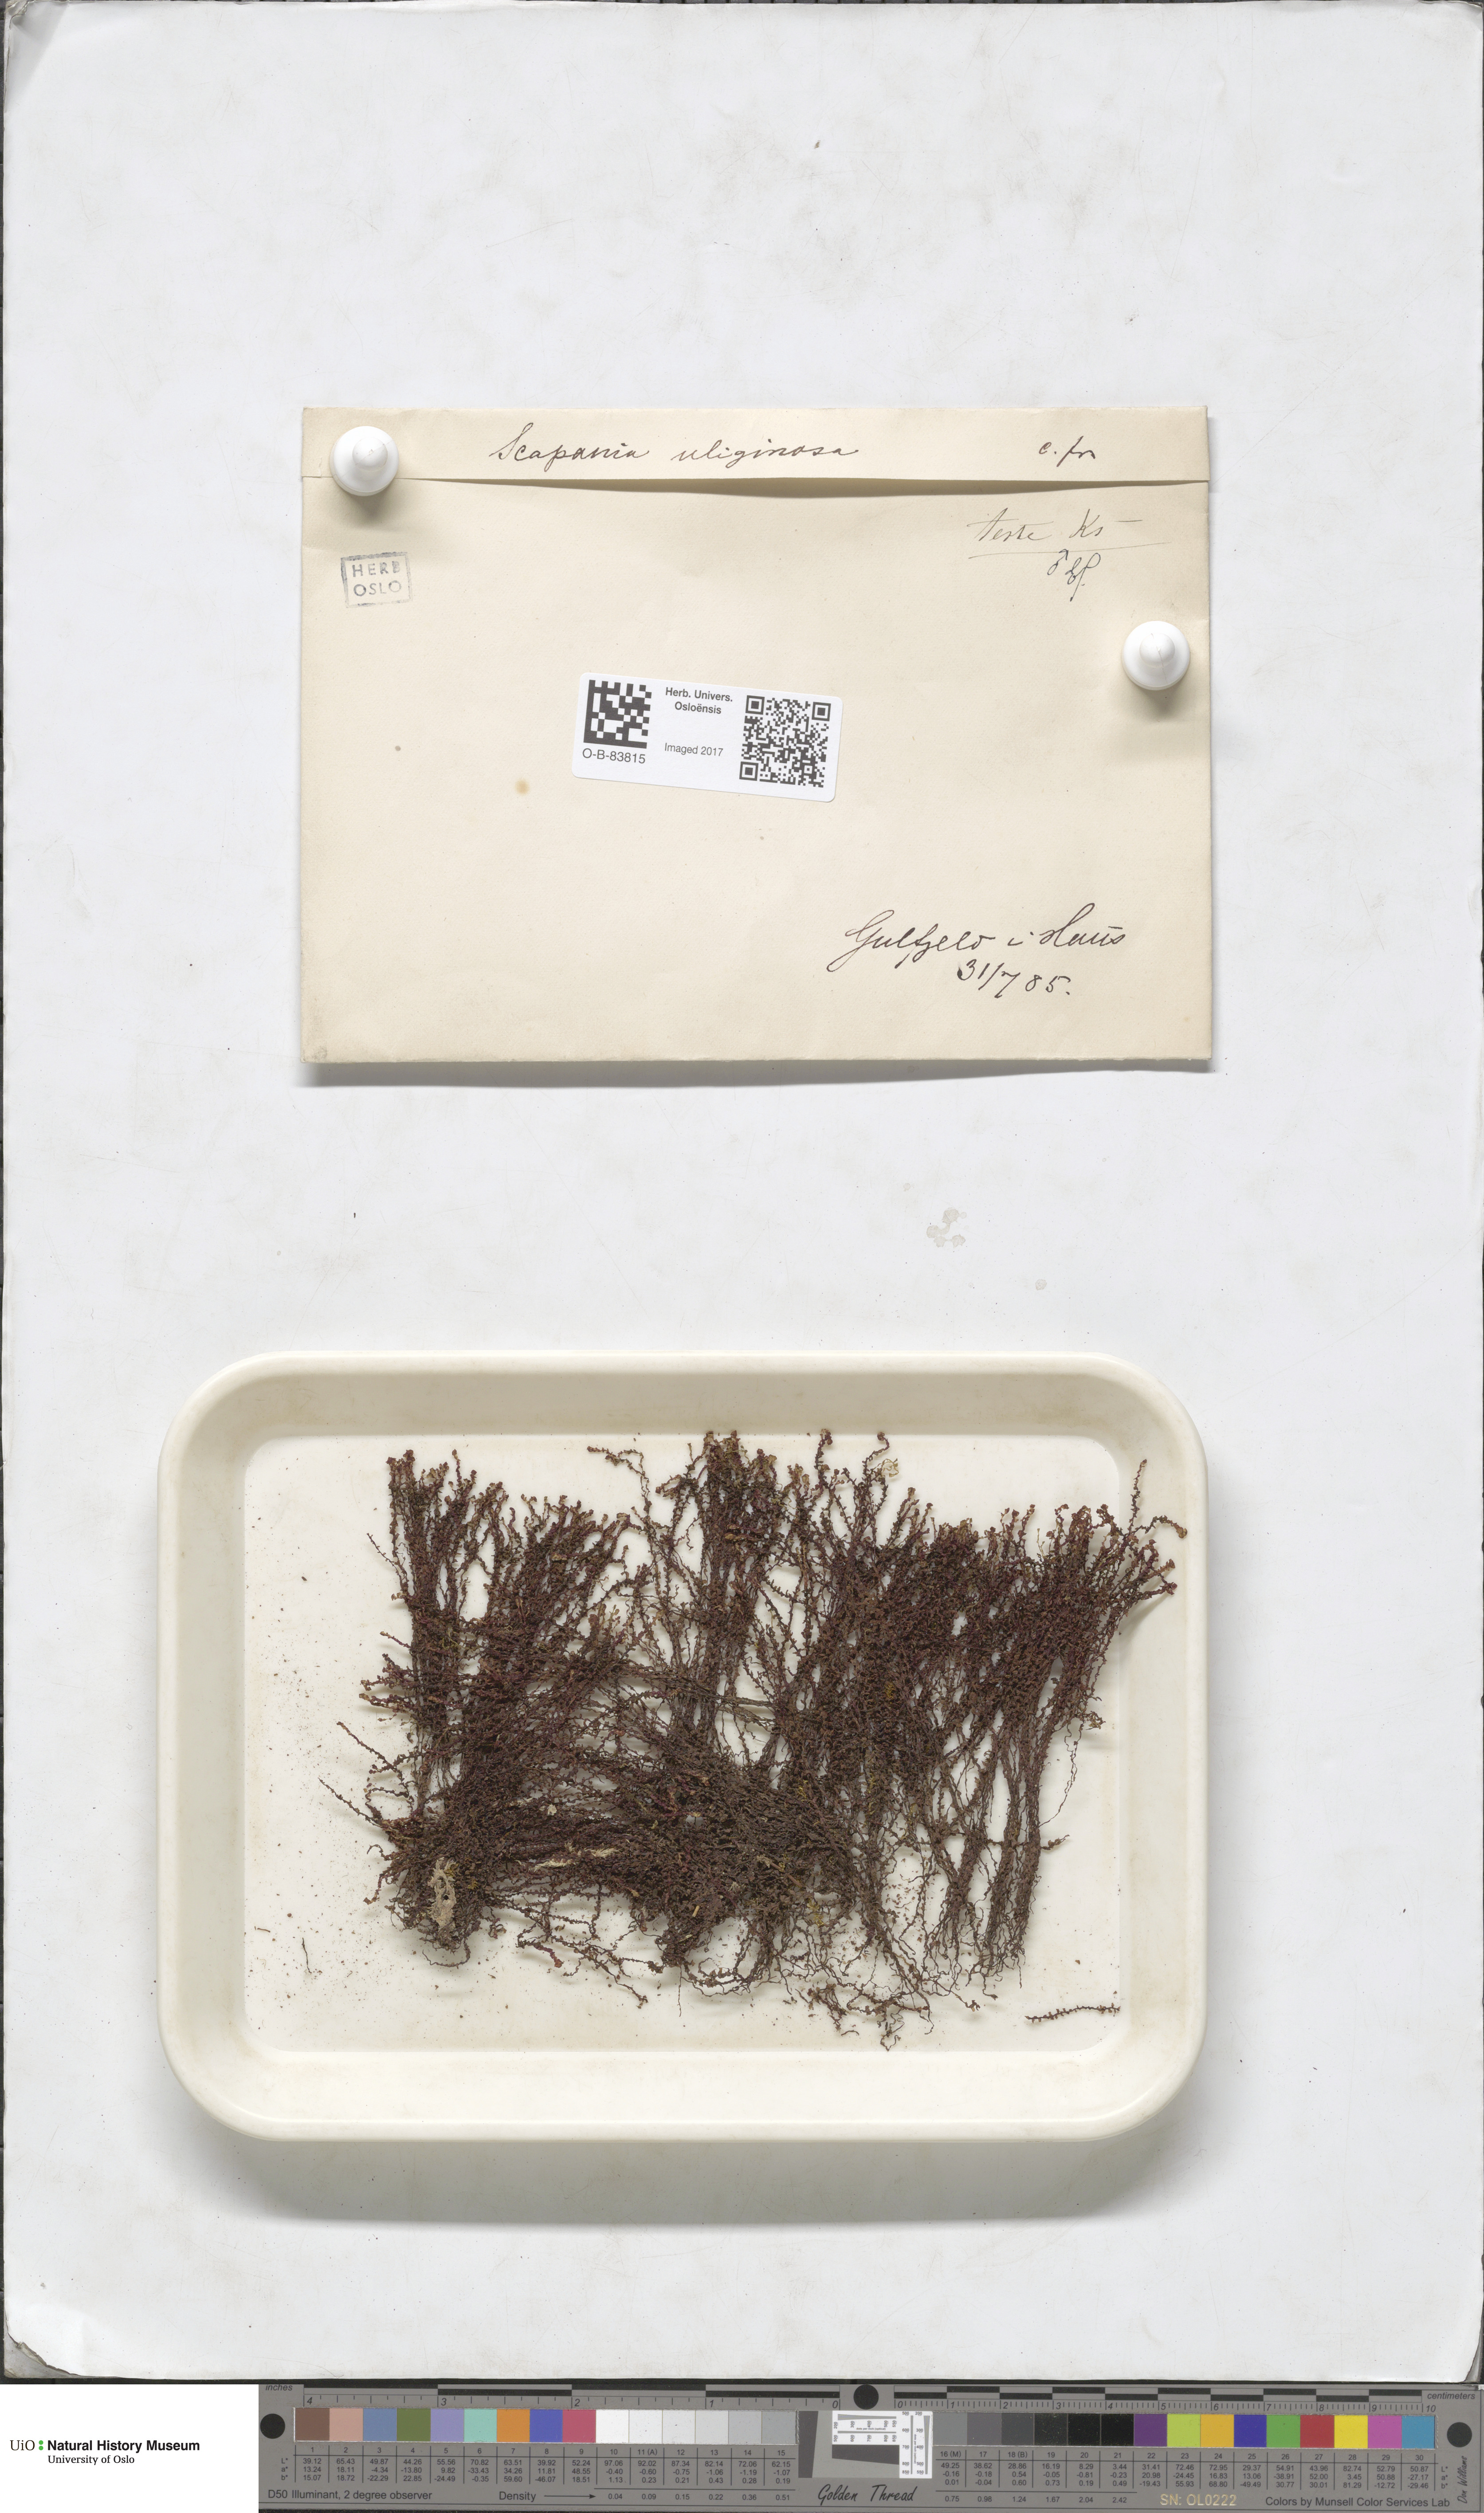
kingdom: Plantae
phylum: Marchantiophyta
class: Jungermanniopsida
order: Jungermanniales
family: Scapaniaceae
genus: Scapania
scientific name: Scapania uliginosa
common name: Marsh earwort
